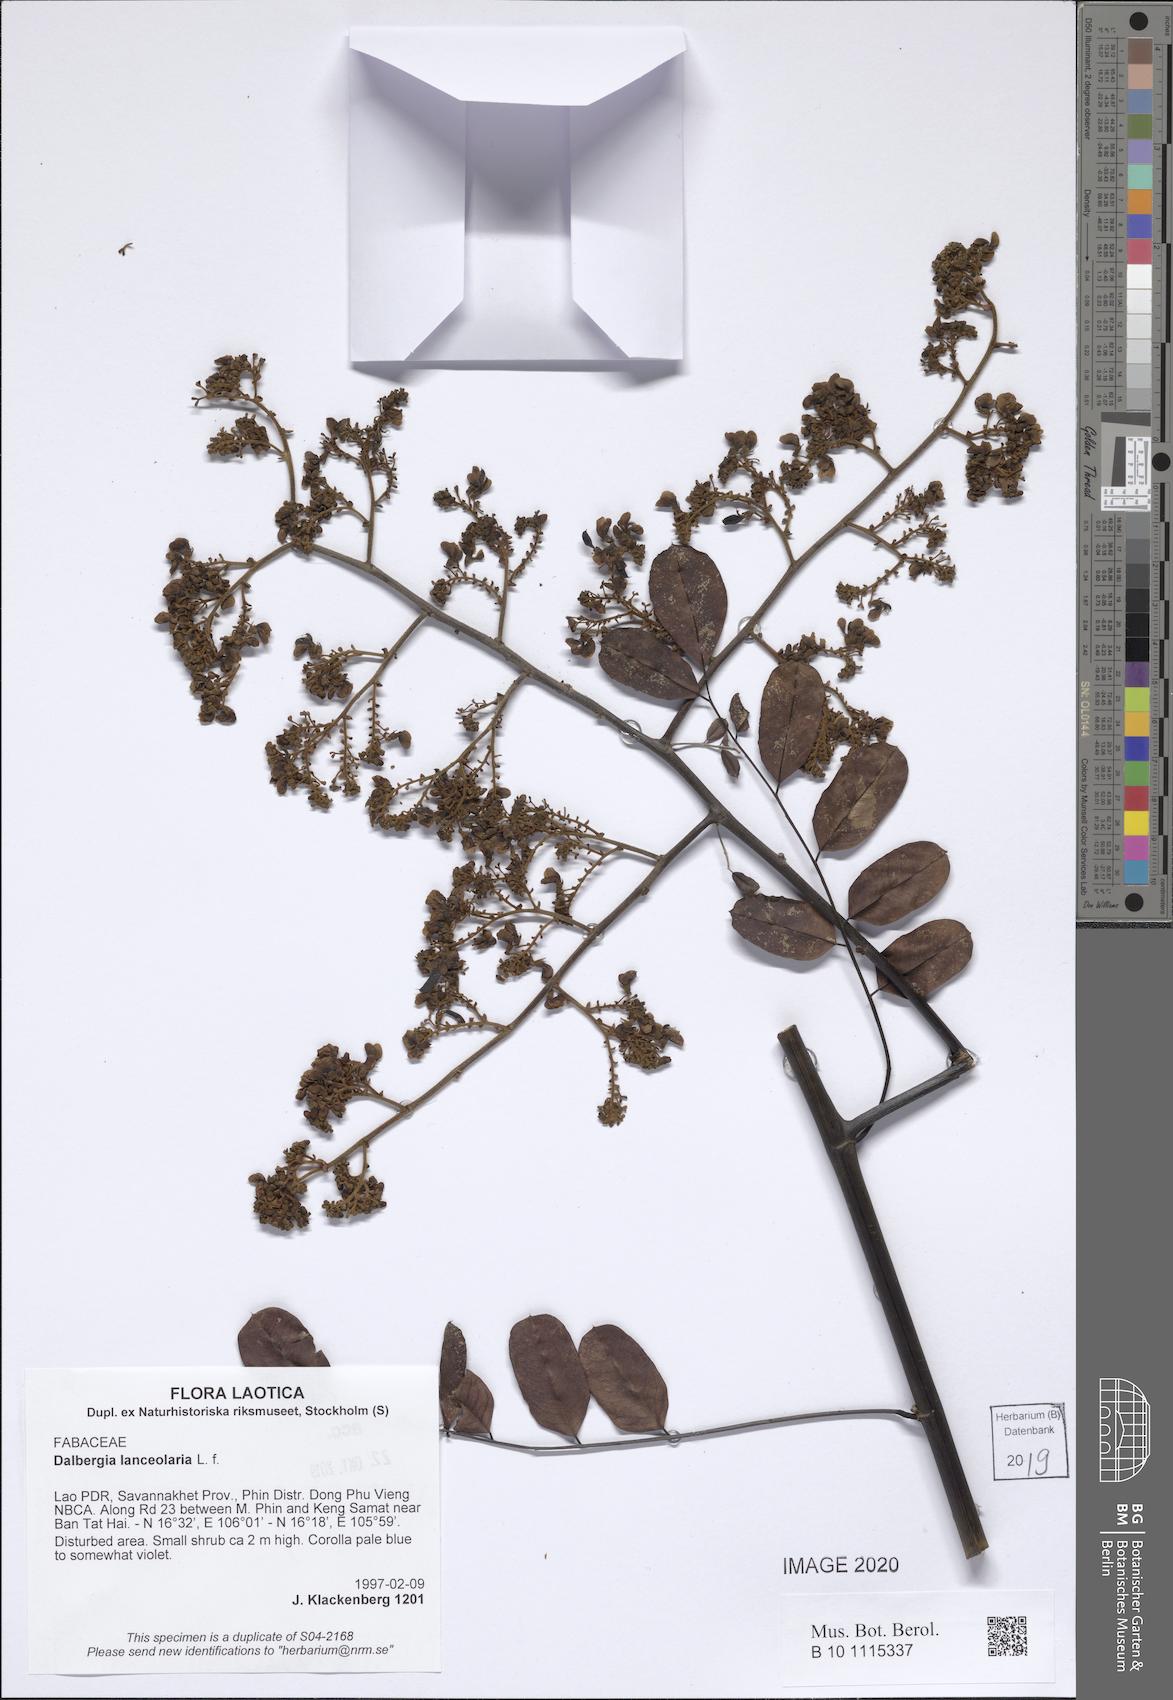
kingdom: Plantae
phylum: Tracheophyta
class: Magnoliopsida
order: Fabales
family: Fabaceae
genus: Dalbergia
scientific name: Dalbergia lanceolaria
